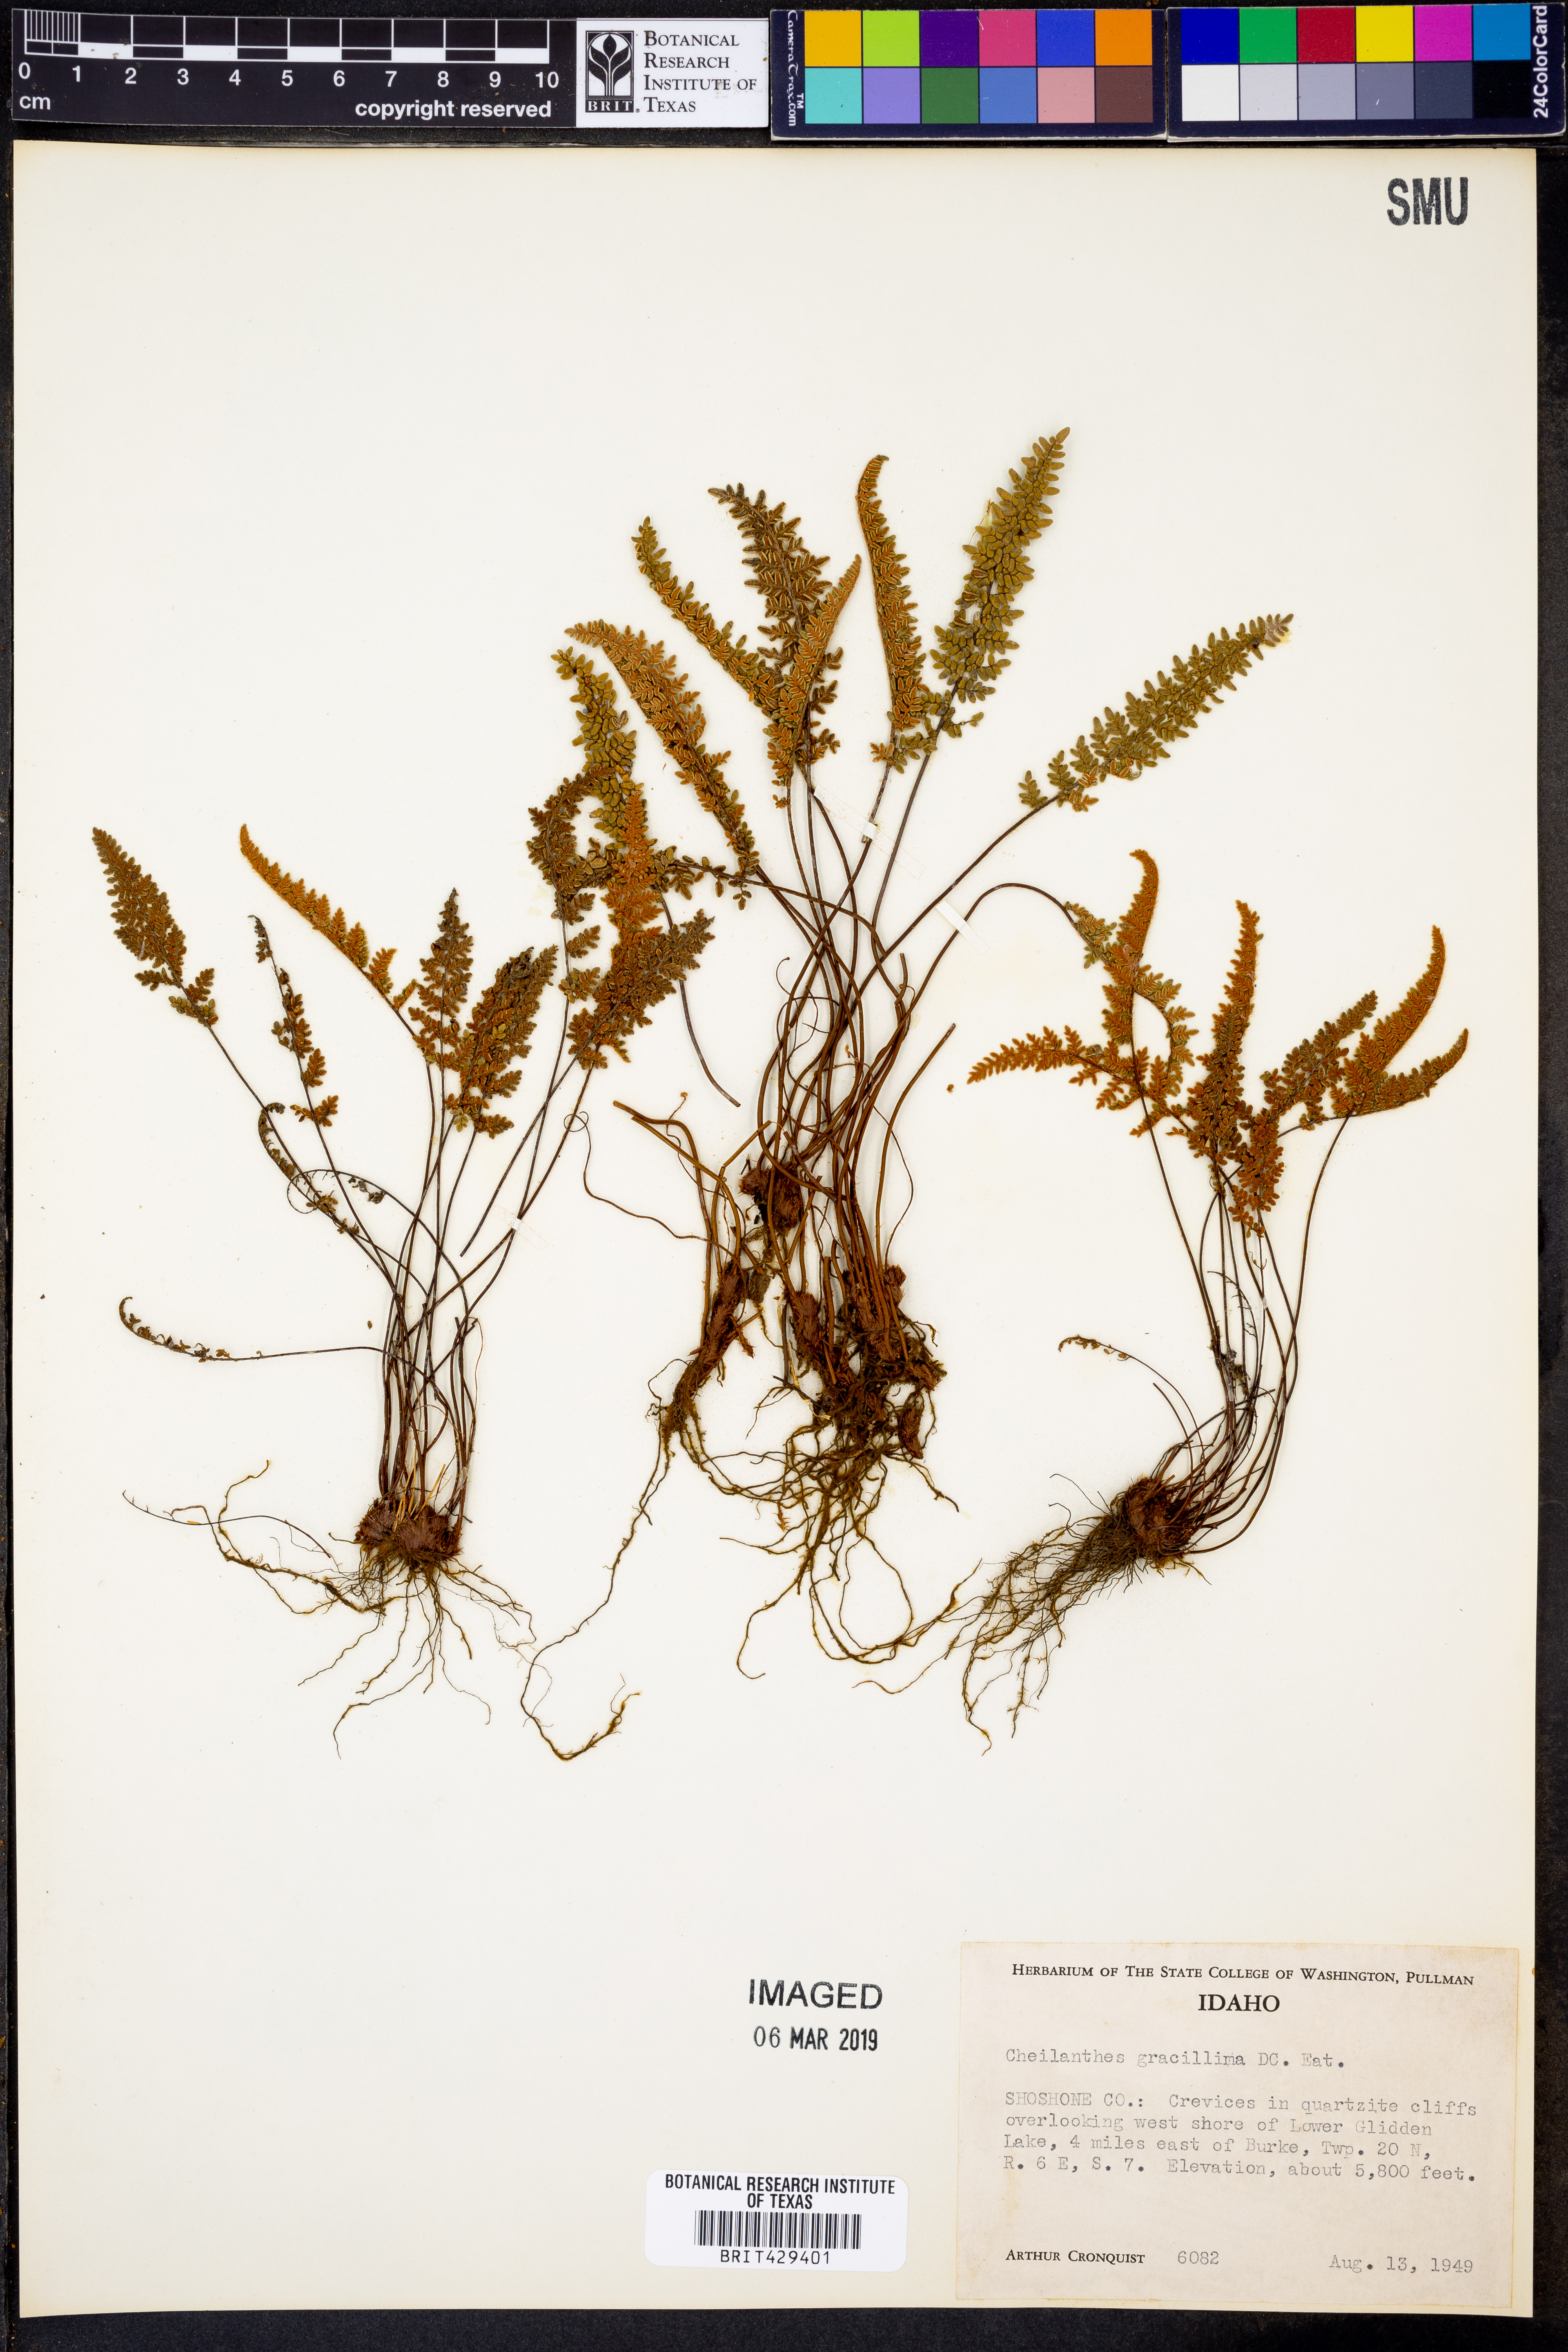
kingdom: Plantae
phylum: Tracheophyta
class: Polypodiopsida
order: Polypodiales
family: Pteridaceae
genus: Myriopteris
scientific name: Myriopteris gracillima
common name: Lace fern
